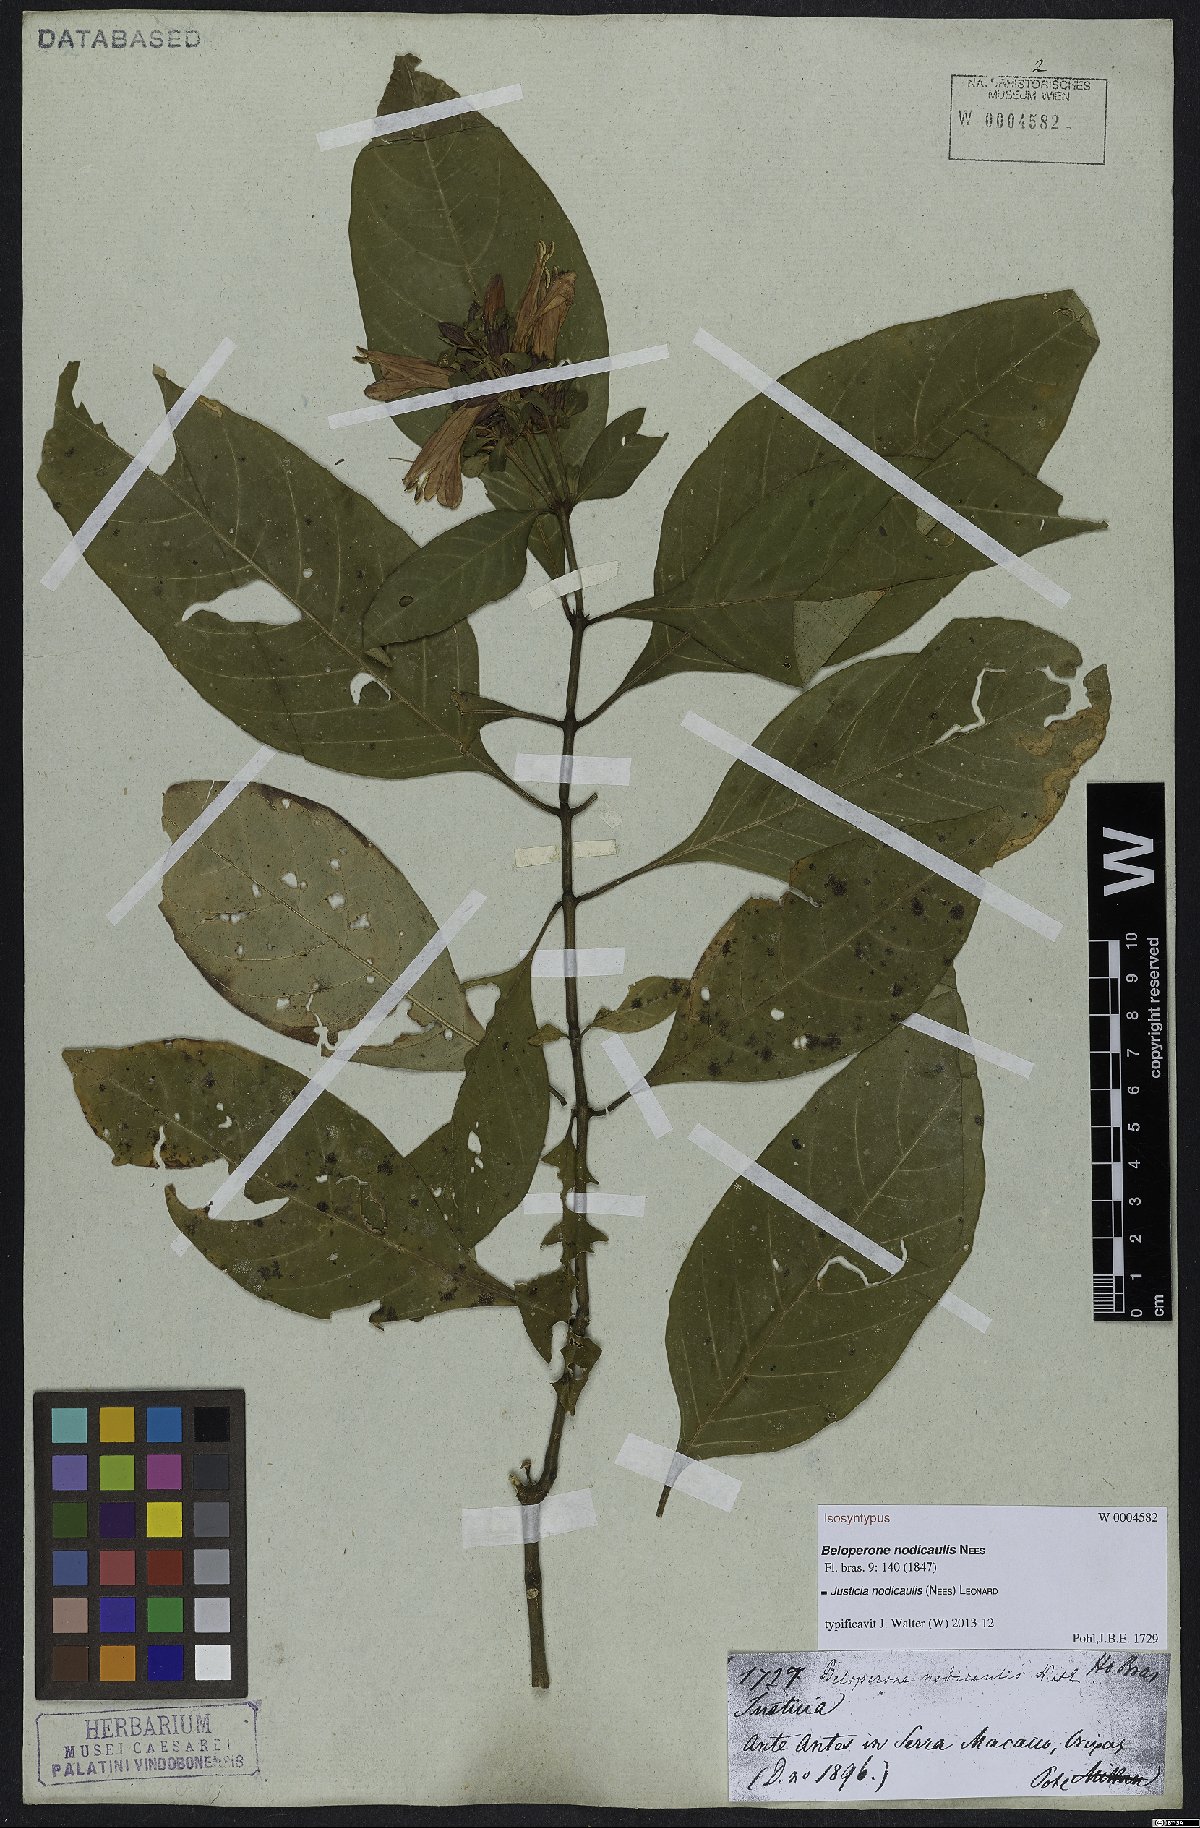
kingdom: Plantae
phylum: Tracheophyta
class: Magnoliopsida
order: Lamiales
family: Acanthaceae
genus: Justicia
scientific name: Justicia nodicaulis
